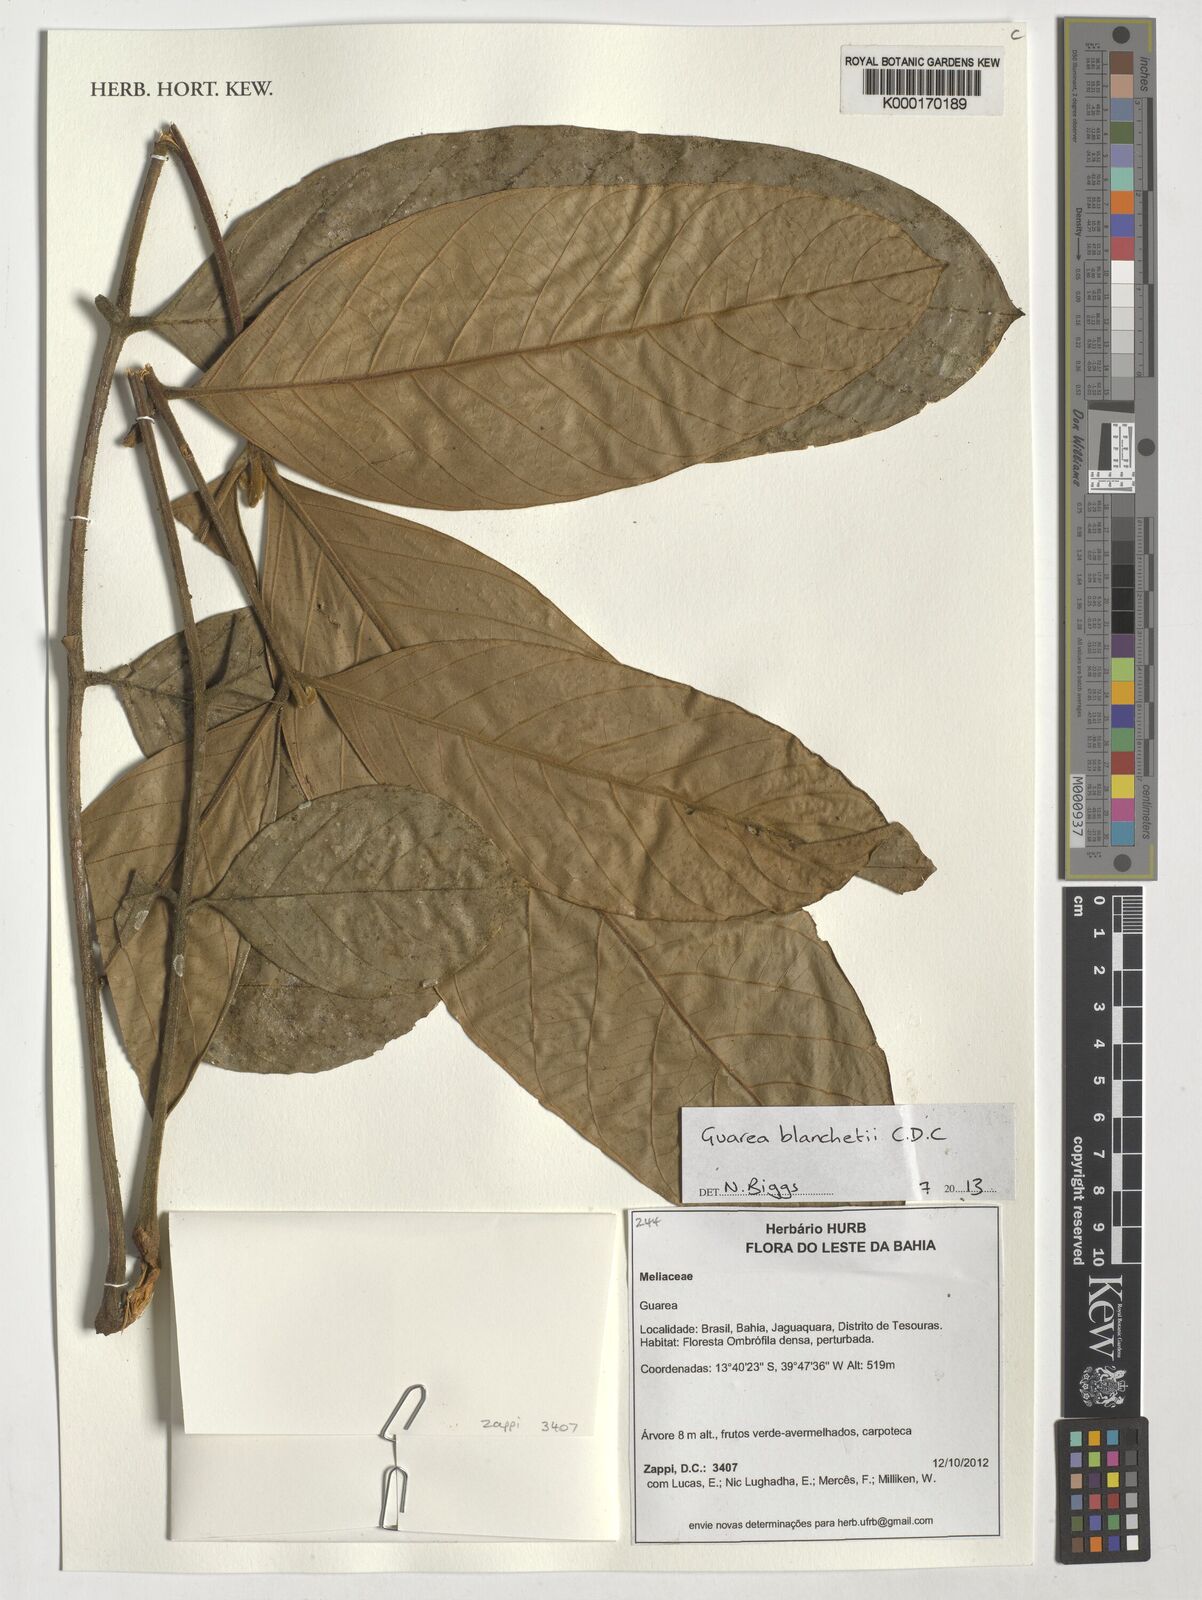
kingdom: Plantae
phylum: Tracheophyta
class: Magnoliopsida
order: Sapindales
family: Meliaceae
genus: Guarea
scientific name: Guarea blanchetii
